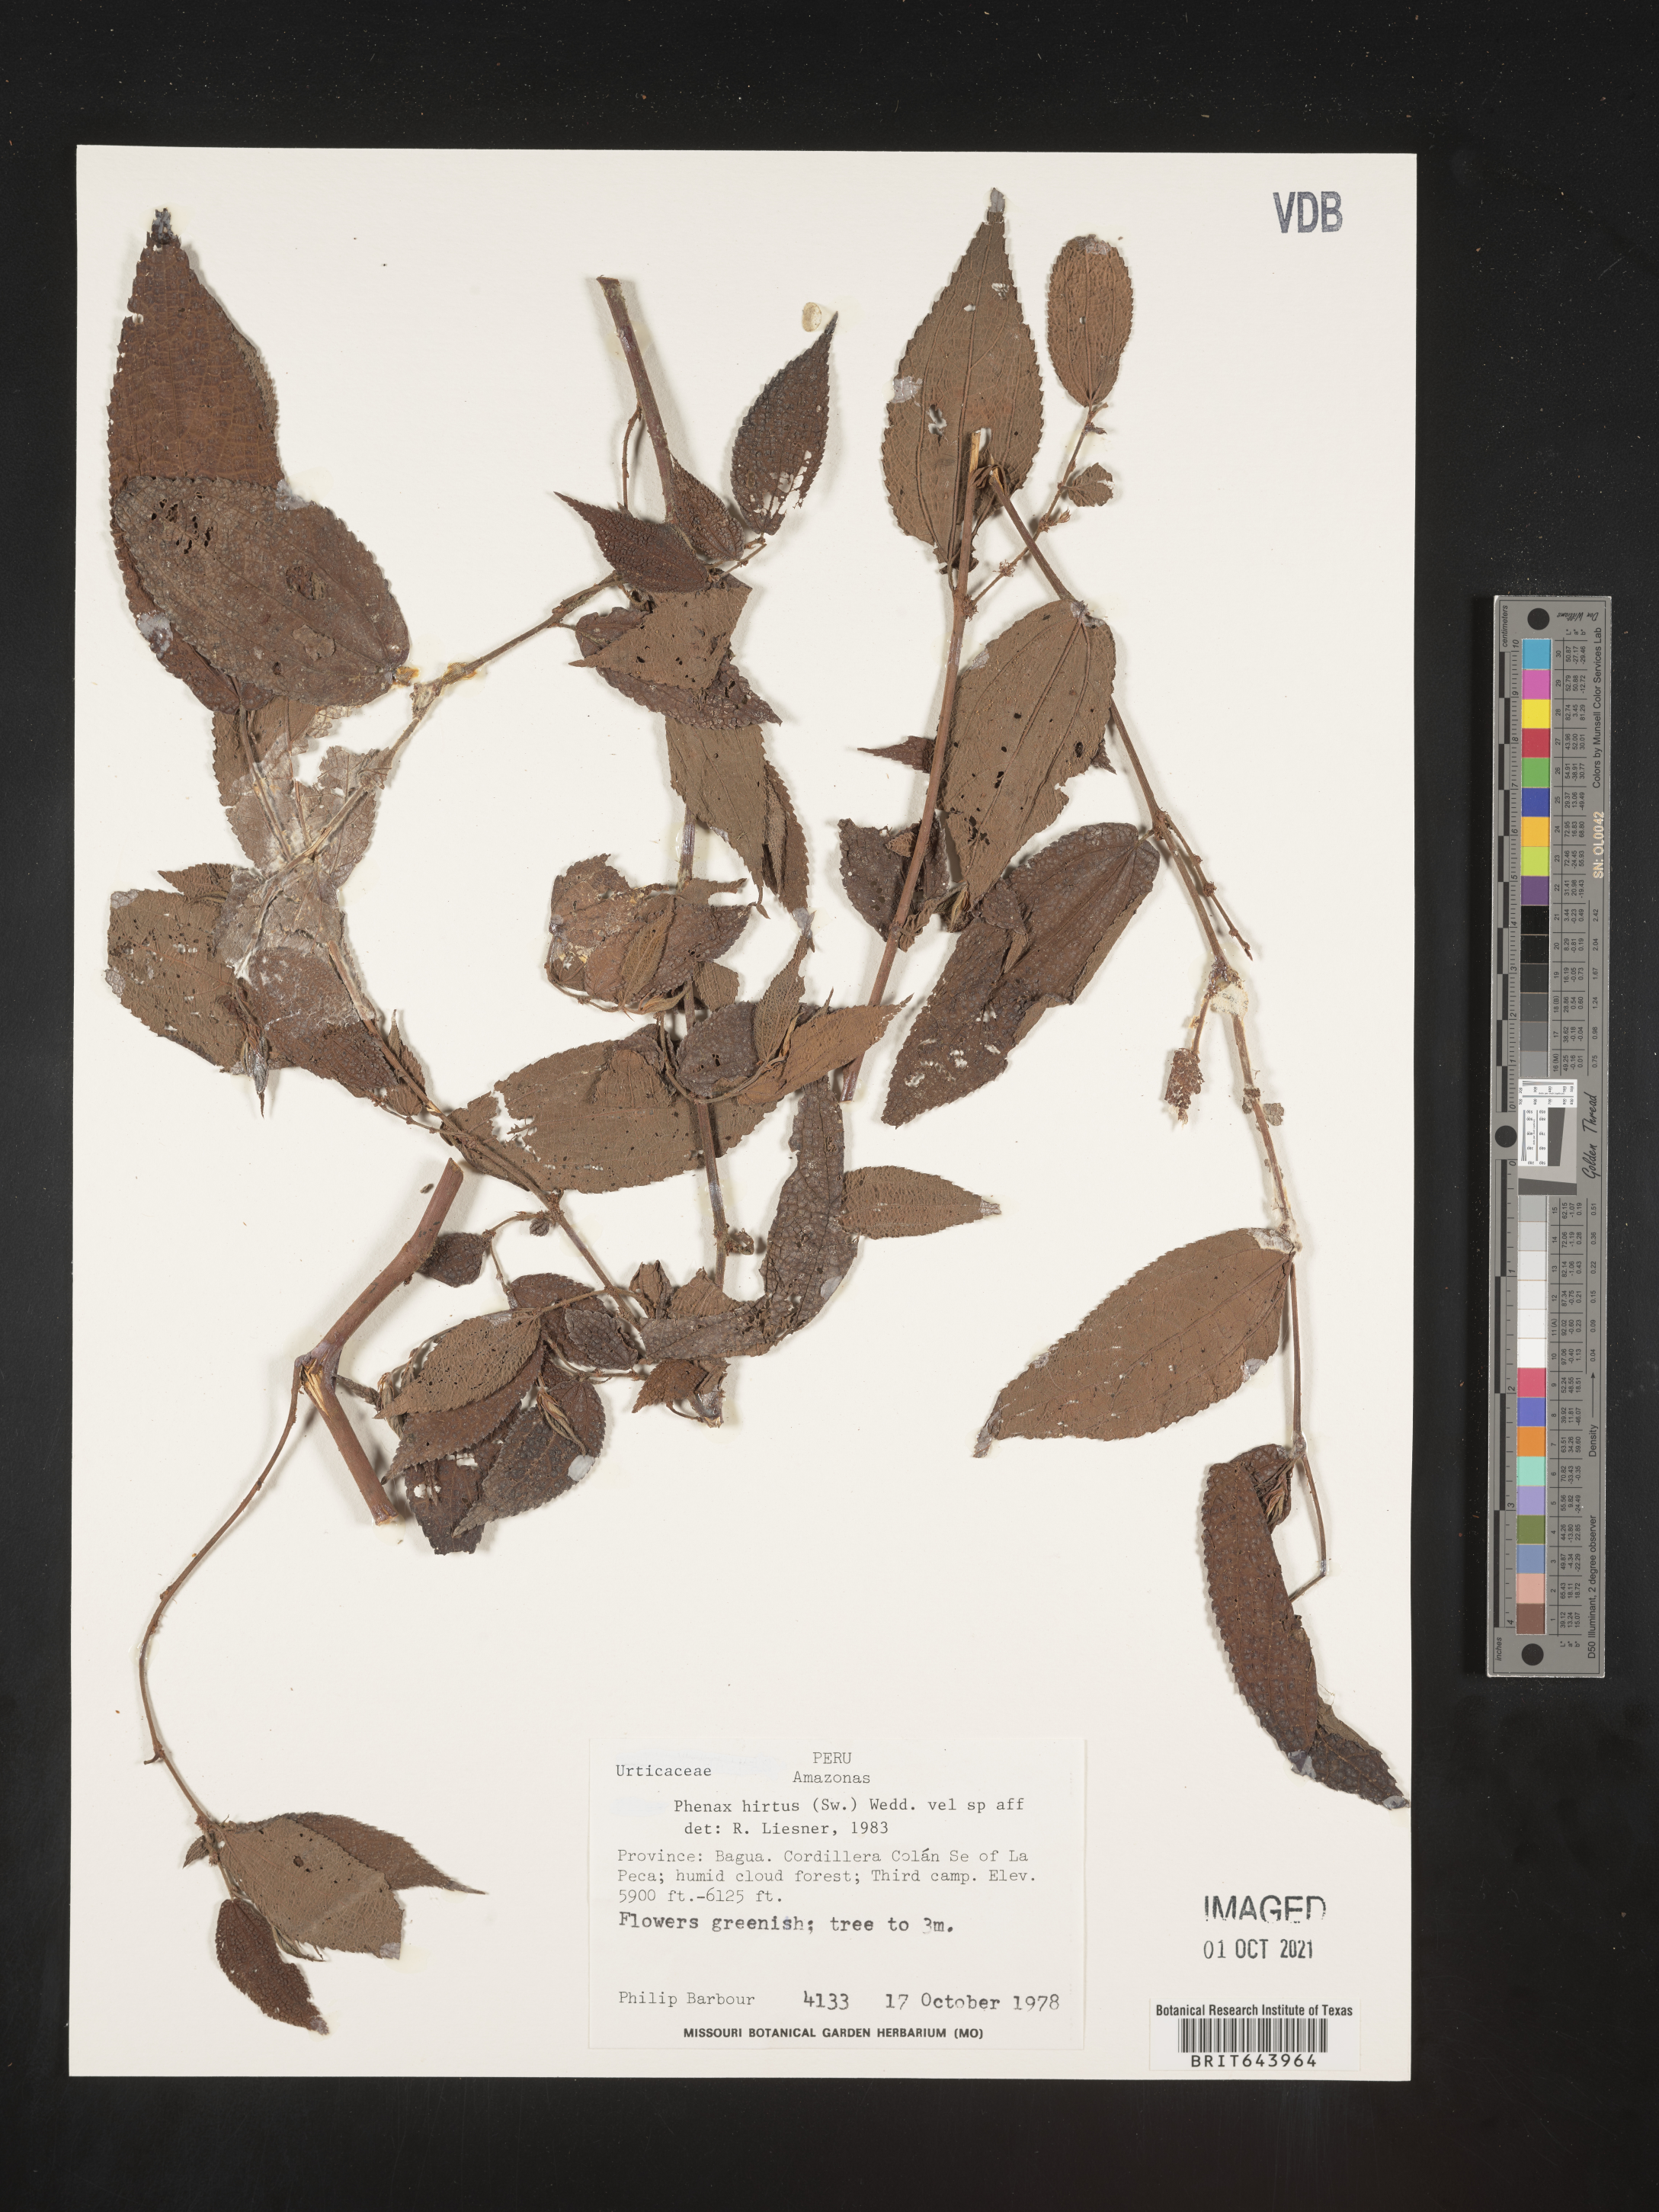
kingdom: Plantae
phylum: Tracheophyta
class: Magnoliopsida
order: Rosales
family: Urticaceae
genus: Phenax
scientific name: Phenax
